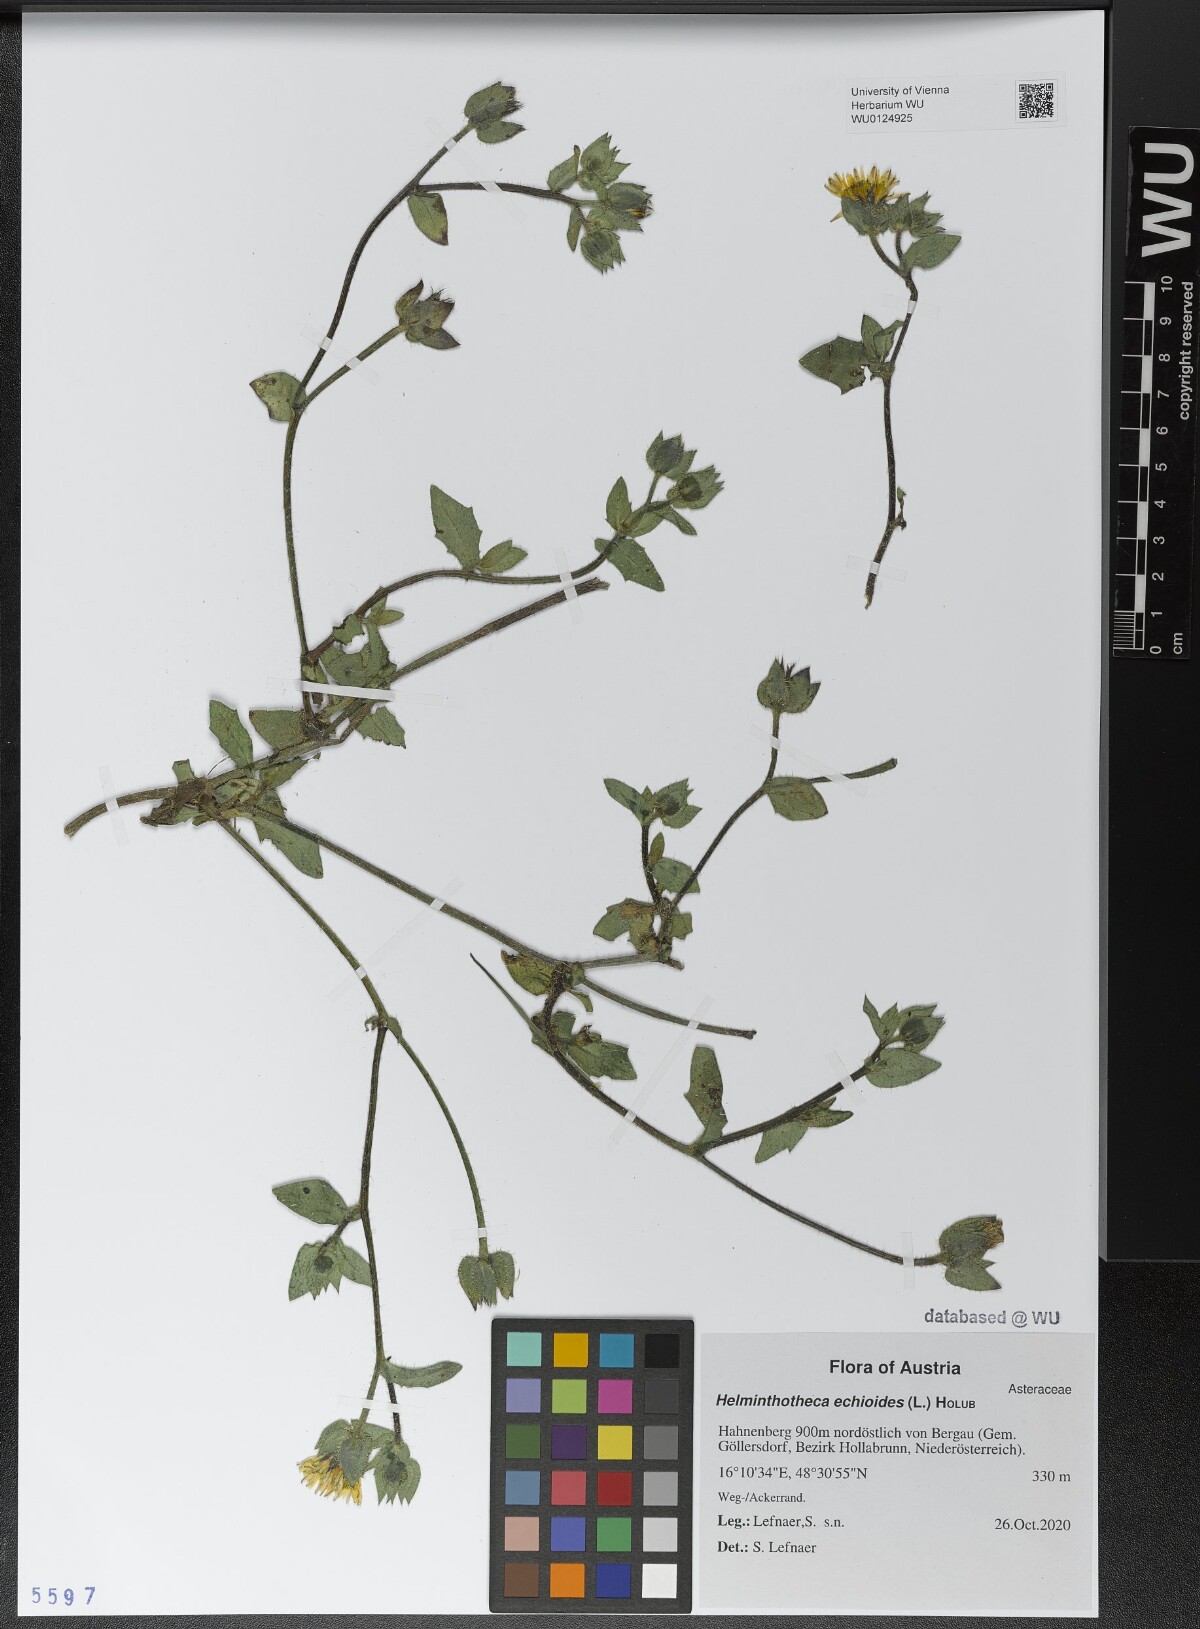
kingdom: Plantae
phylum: Tracheophyta
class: Magnoliopsida
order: Asterales
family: Asteraceae
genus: Helminthotheca
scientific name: Helminthotheca echioides
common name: Ox-tongue
